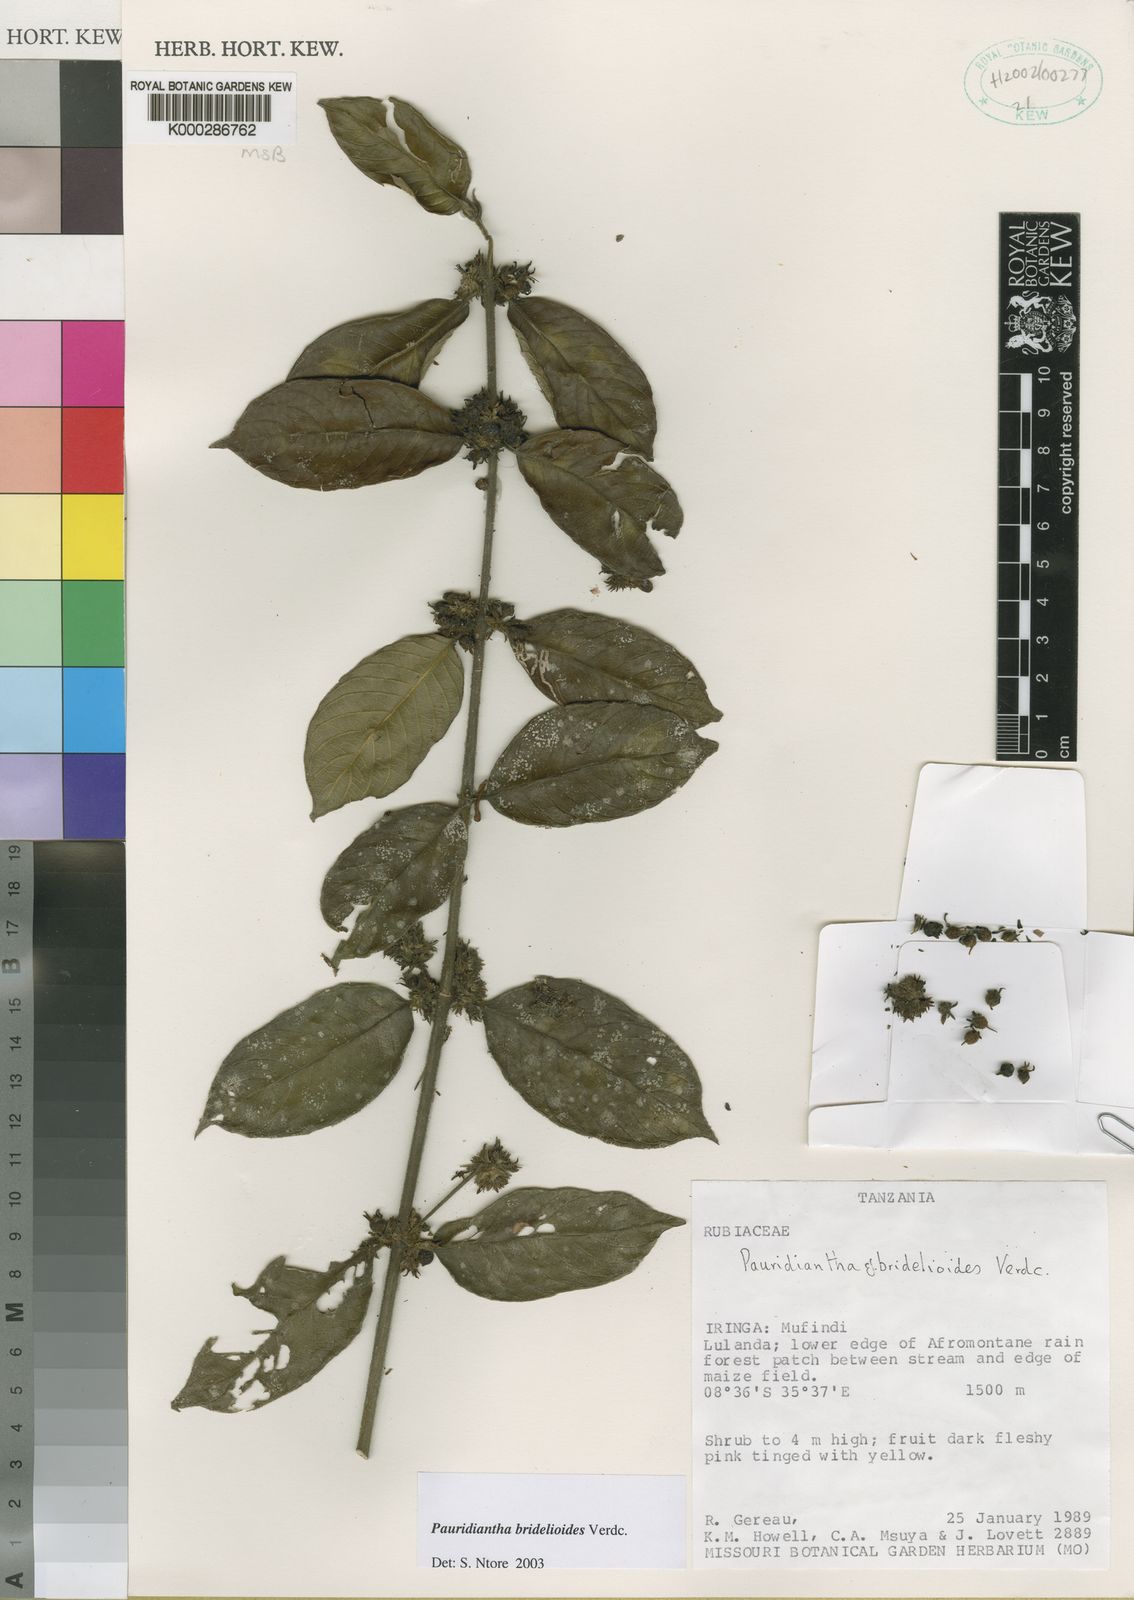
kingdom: Plantae
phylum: Tracheophyta
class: Magnoliopsida
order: Gentianales
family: Rubiaceae
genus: Pauridiantha
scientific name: Pauridiantha bridelioides
